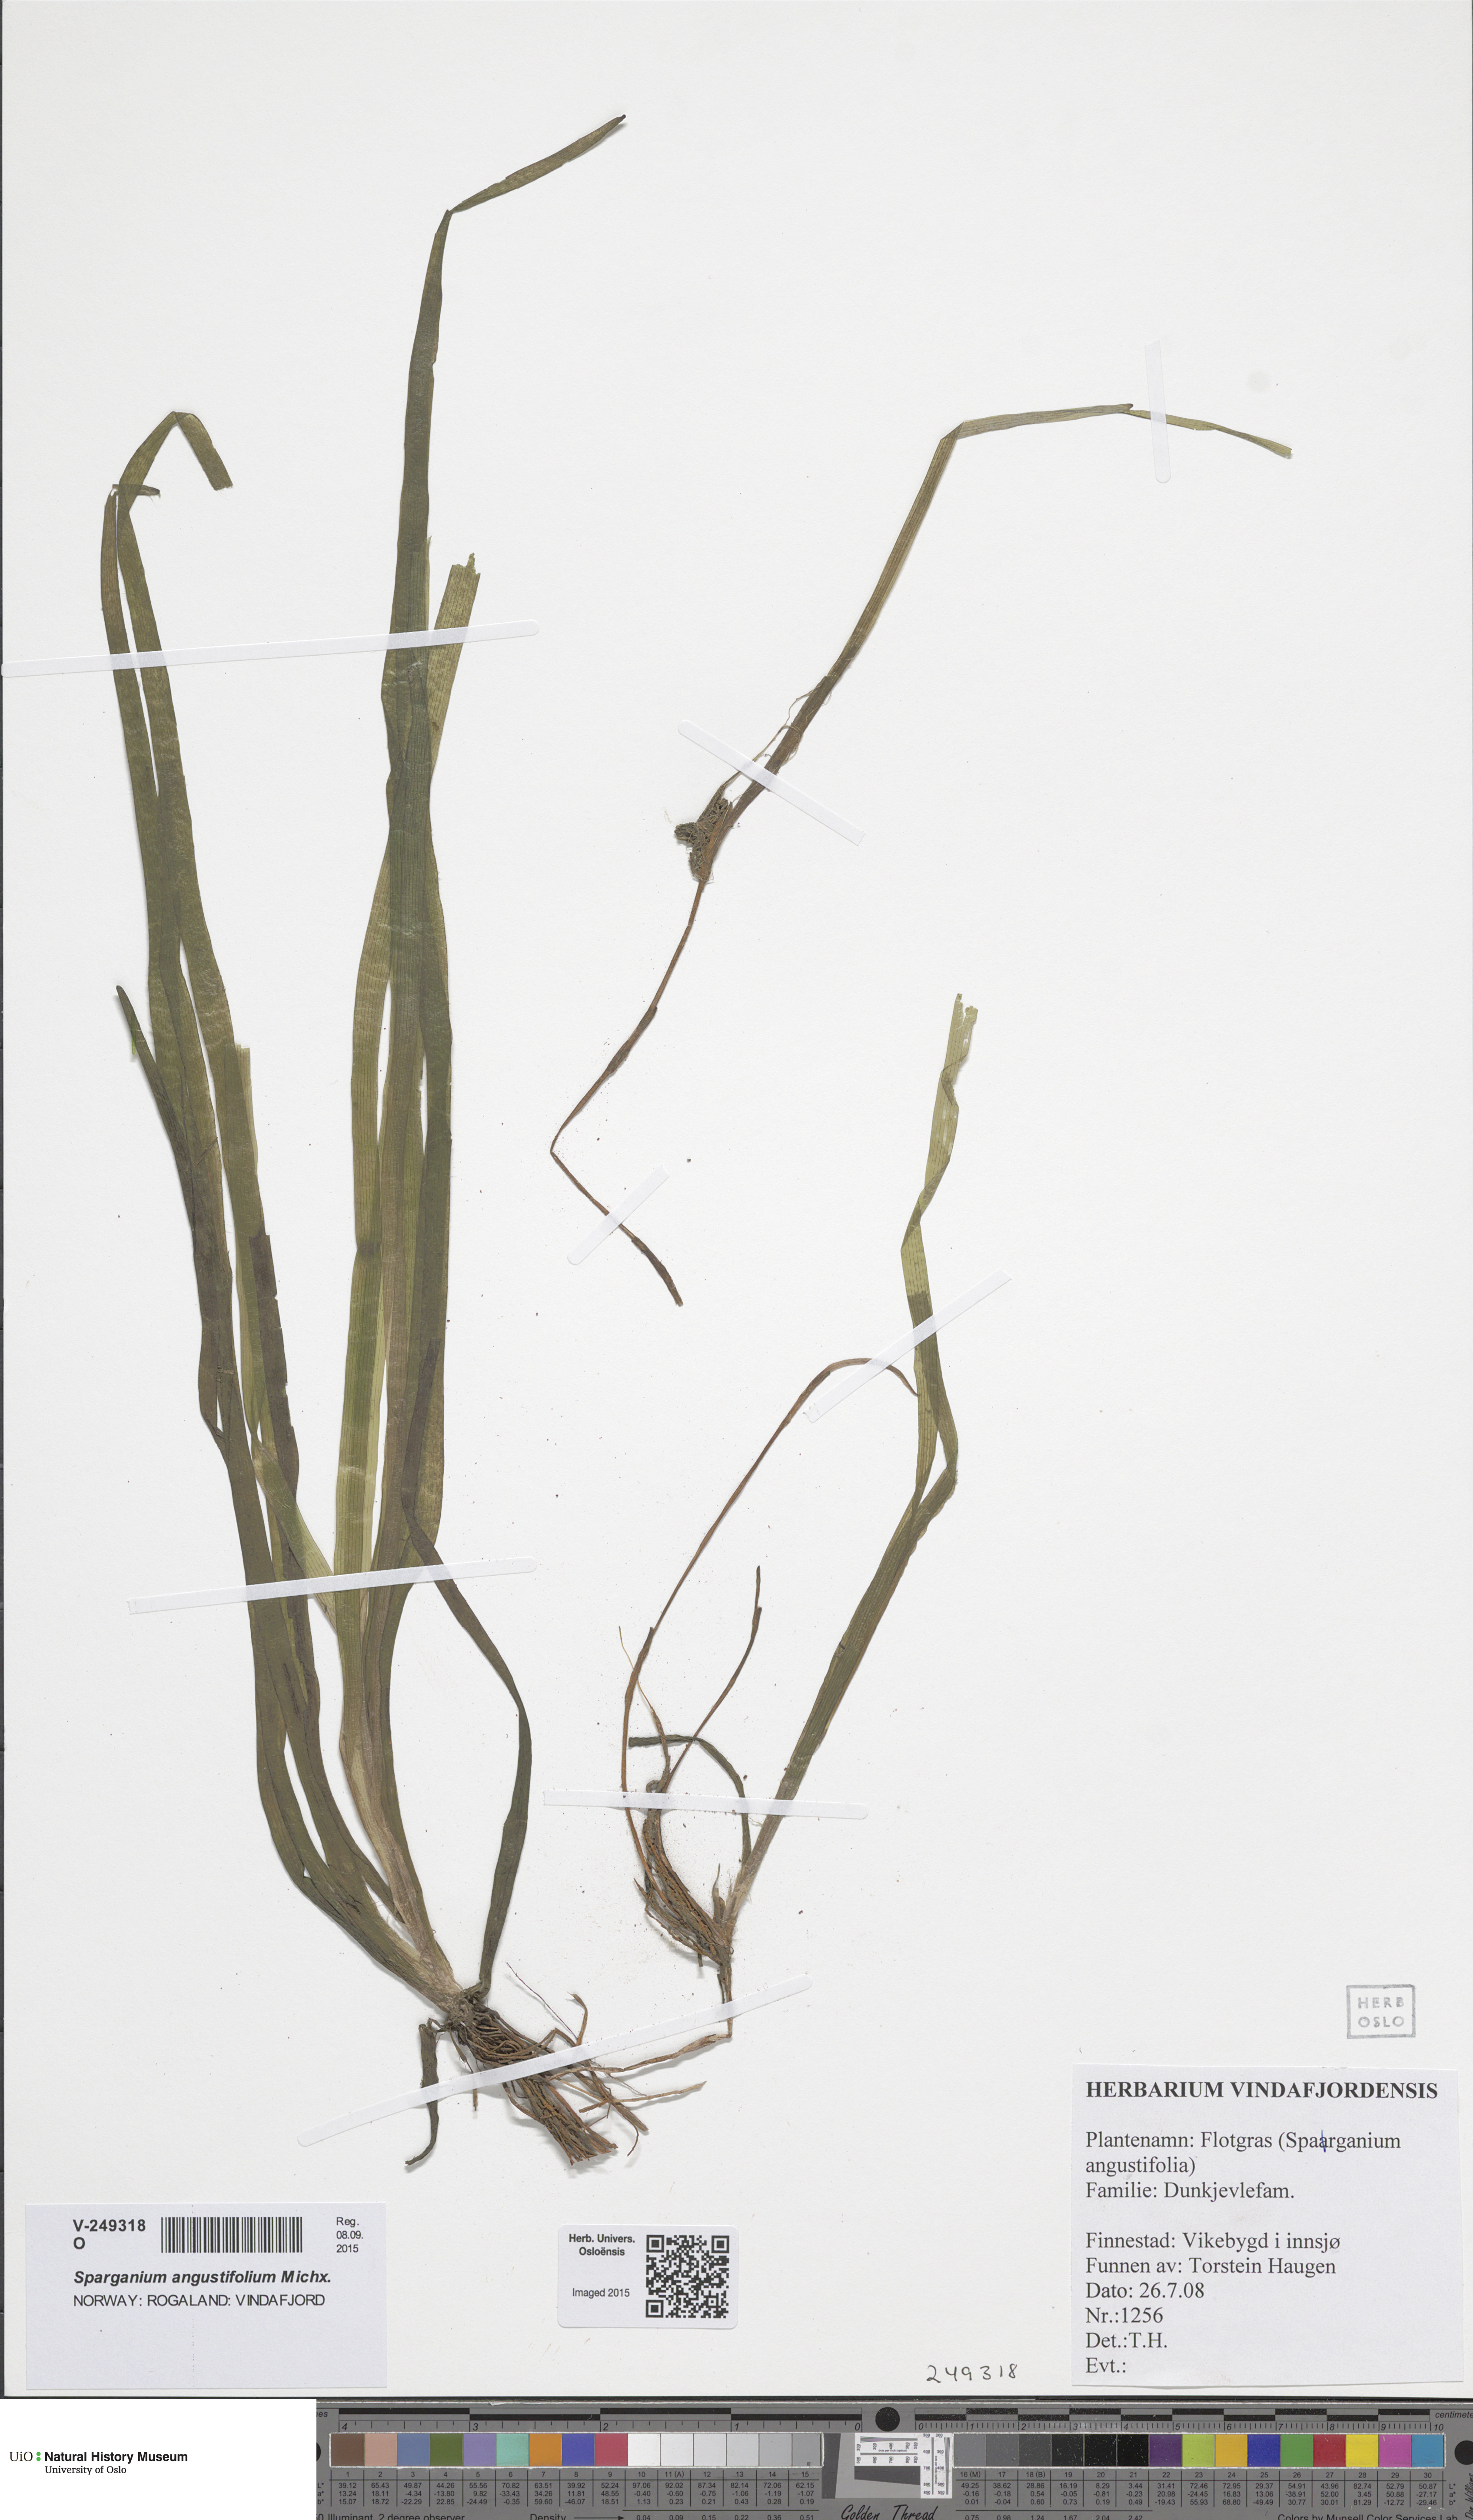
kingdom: Plantae
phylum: Tracheophyta
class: Liliopsida
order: Poales
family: Typhaceae
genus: Sparganium
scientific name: Sparganium
